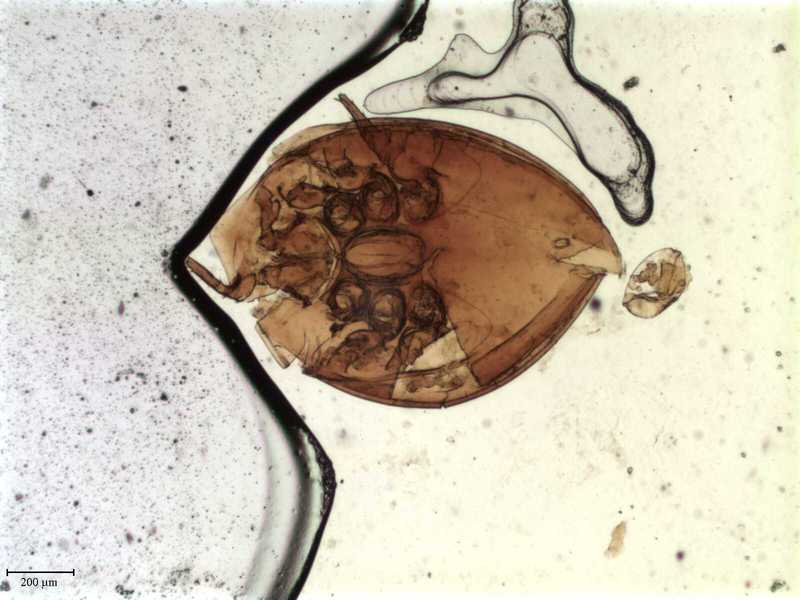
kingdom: Animalia
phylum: Arthropoda
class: Arachnida
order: Mesostigmata
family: Uroactiniidae
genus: Uroactinia
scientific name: Uroactinia hippocrepoides
